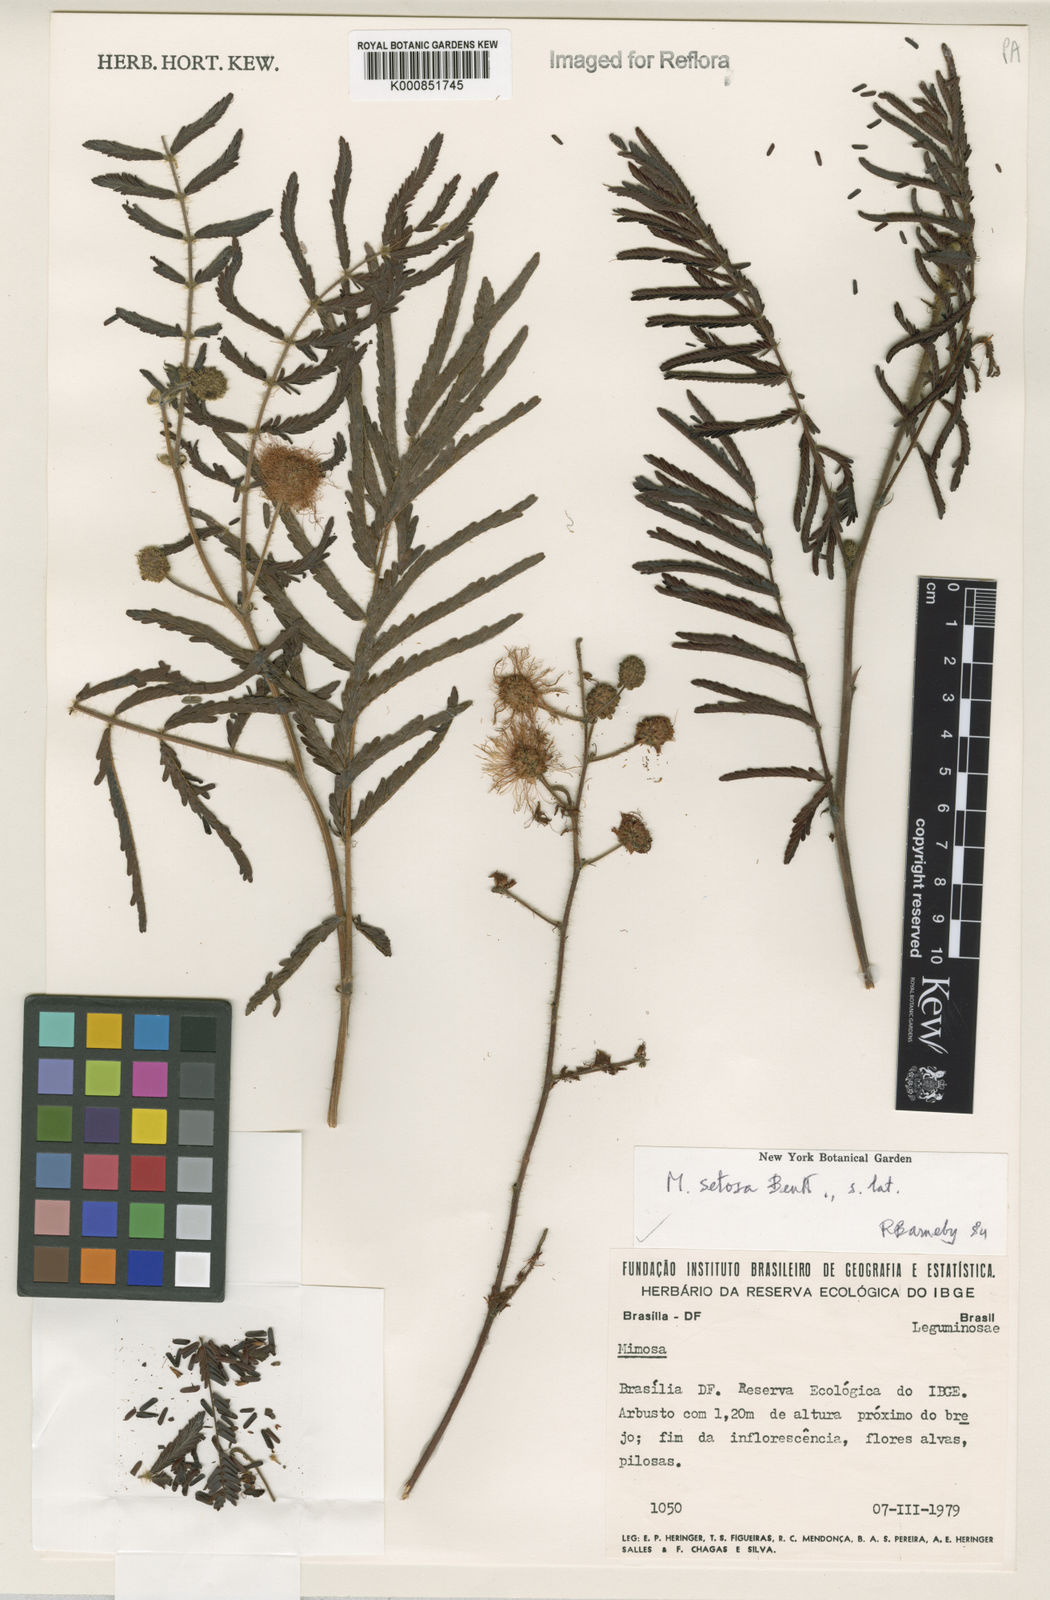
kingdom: Plantae
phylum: Tracheophyta
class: Magnoliopsida
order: Fabales
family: Fabaceae
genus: Mimosa
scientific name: Mimosa setosa
